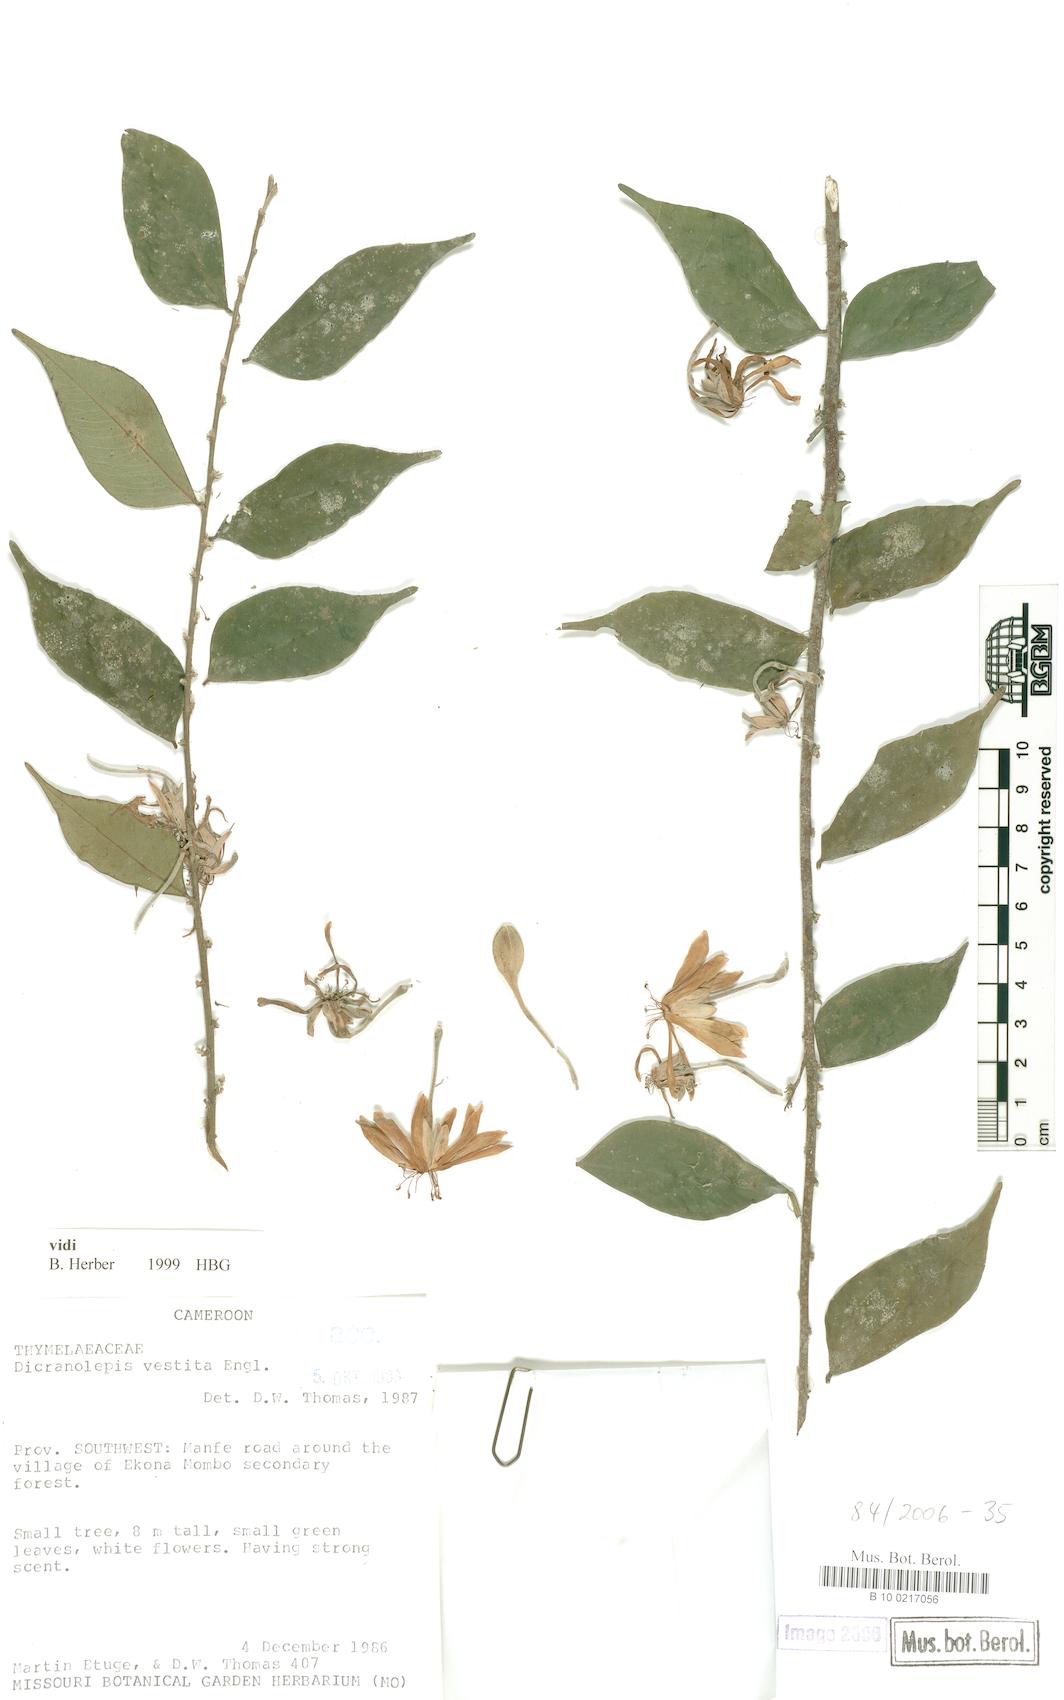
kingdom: Plantae
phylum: Tracheophyta
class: Magnoliopsida
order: Malvales
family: Thymelaeaceae
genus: Dicranolepis
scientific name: Dicranolepis grandiflora
